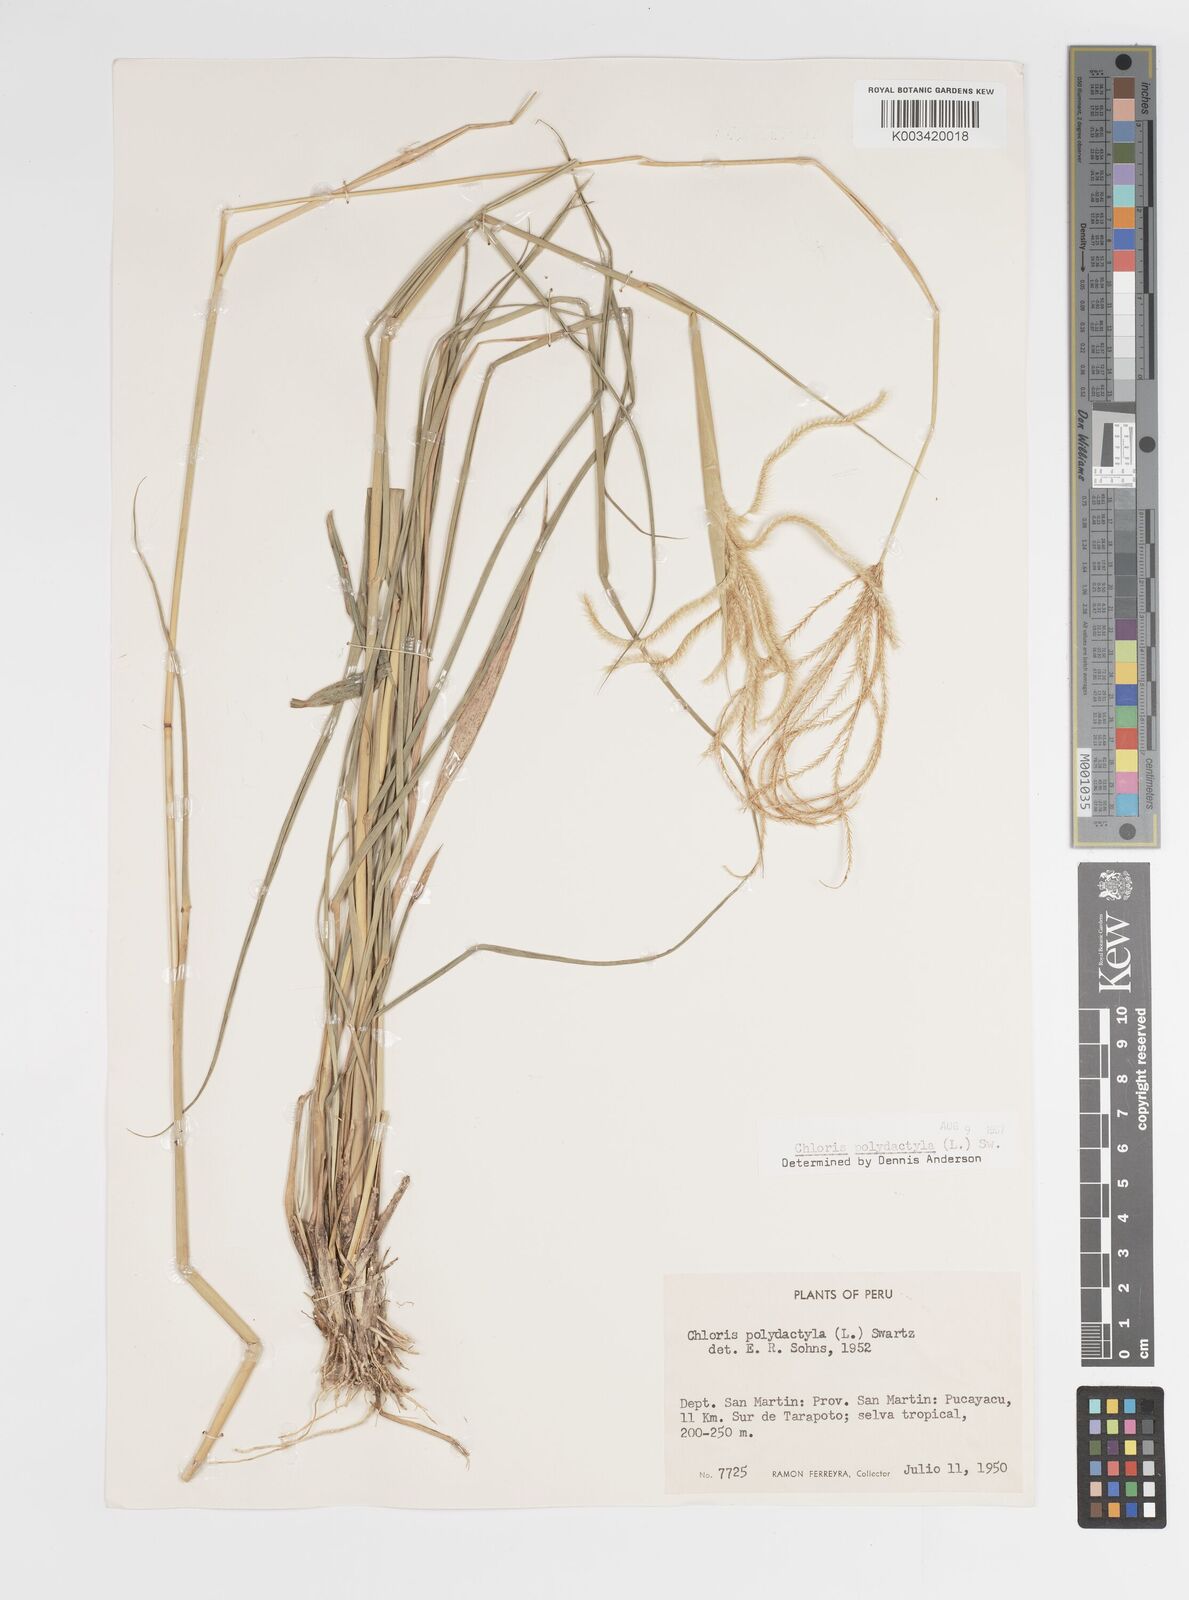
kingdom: Plantae
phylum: Tracheophyta
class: Liliopsida
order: Poales
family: Poaceae
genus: Stapfochloa
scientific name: Stapfochloa elata
